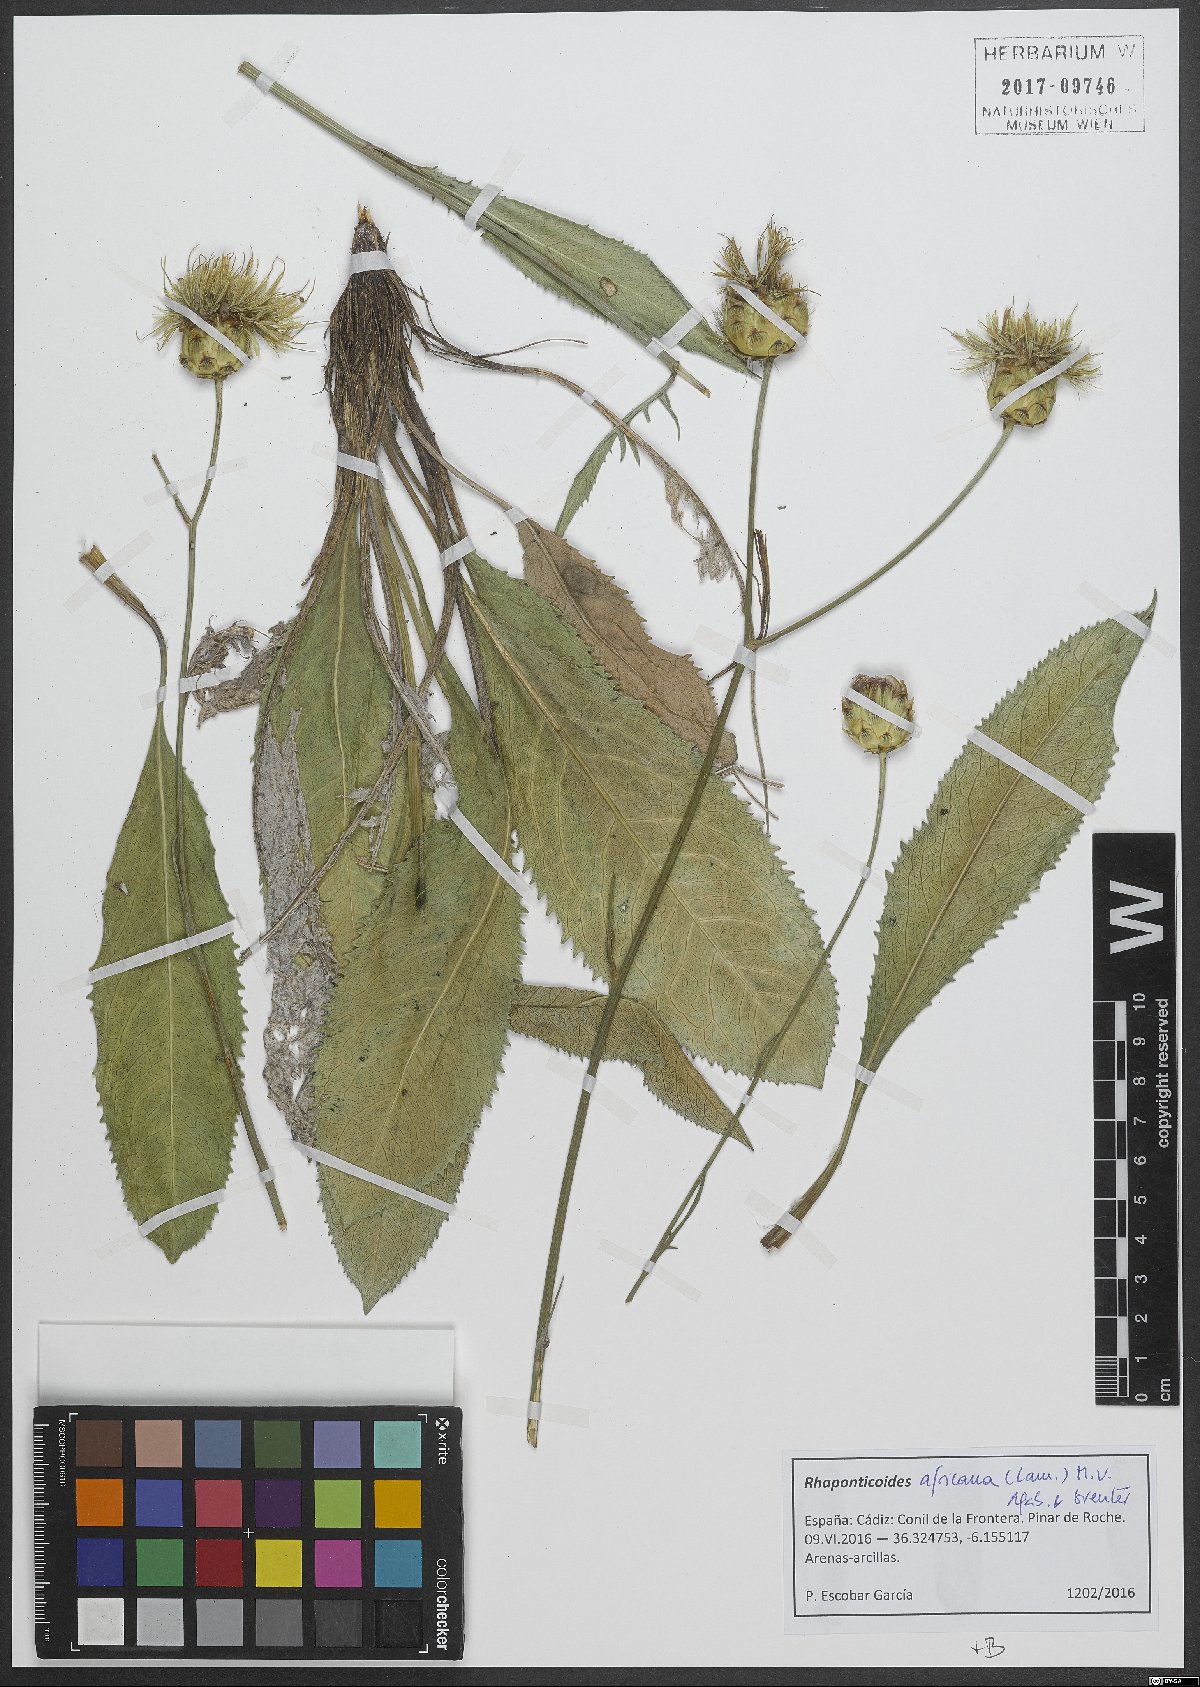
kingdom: Plantae
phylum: Tracheophyta
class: Magnoliopsida
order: Asterales
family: Asteraceae
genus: Rhaponticoides
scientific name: Rhaponticoides africana
